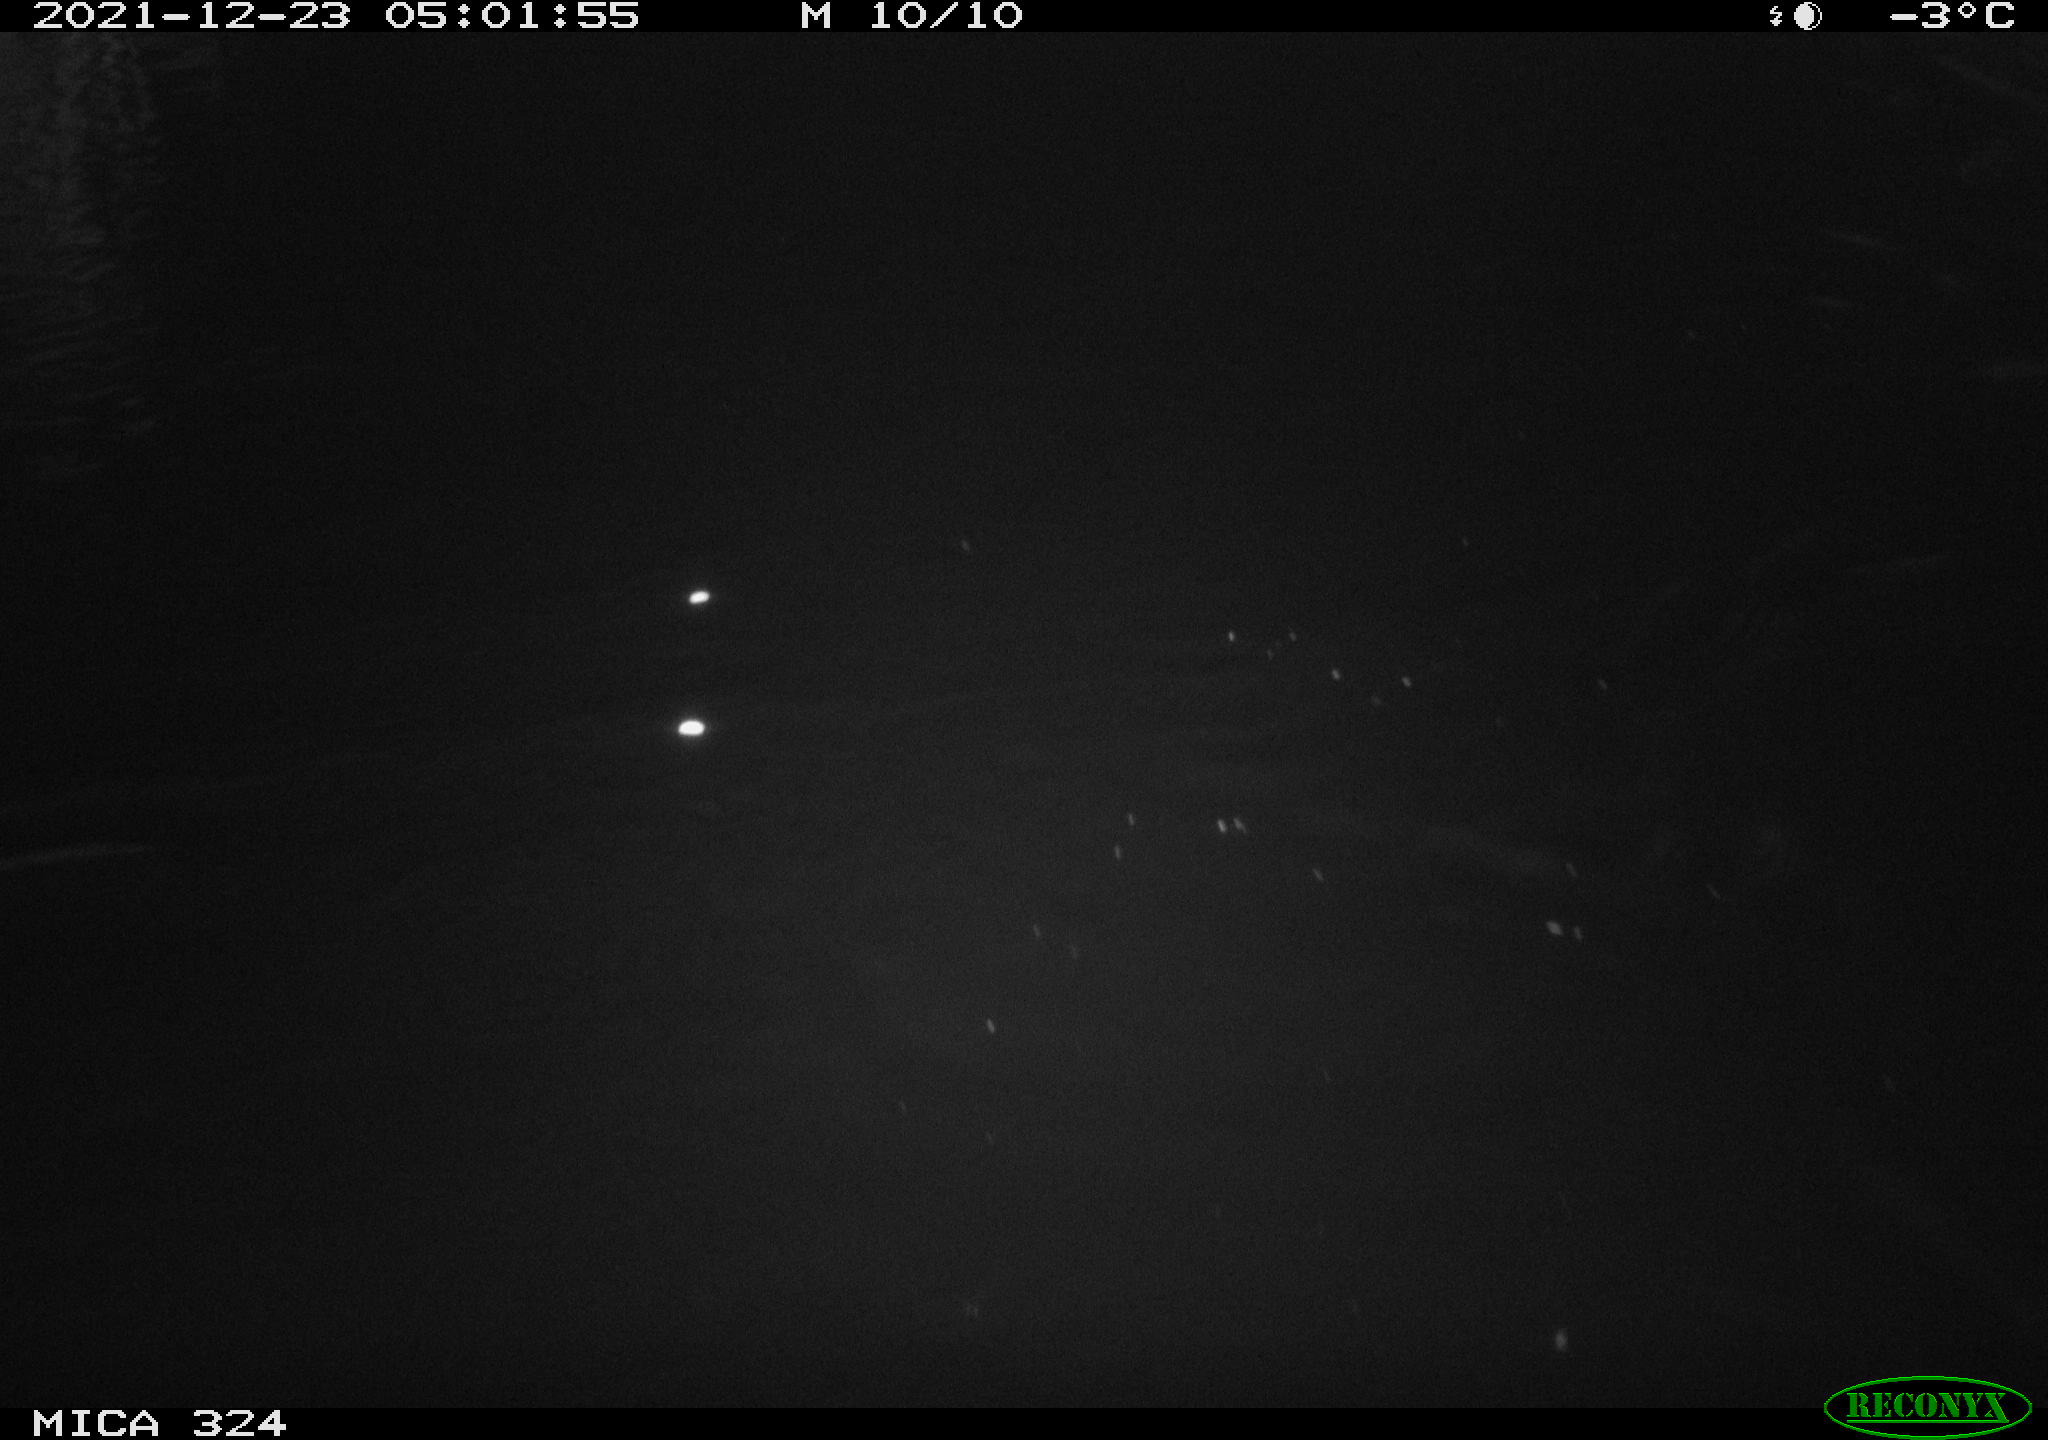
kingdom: Animalia
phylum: Chordata
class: Mammalia
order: Rodentia
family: Cricetidae
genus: Ondatra
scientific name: Ondatra zibethicus
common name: Muskrat
